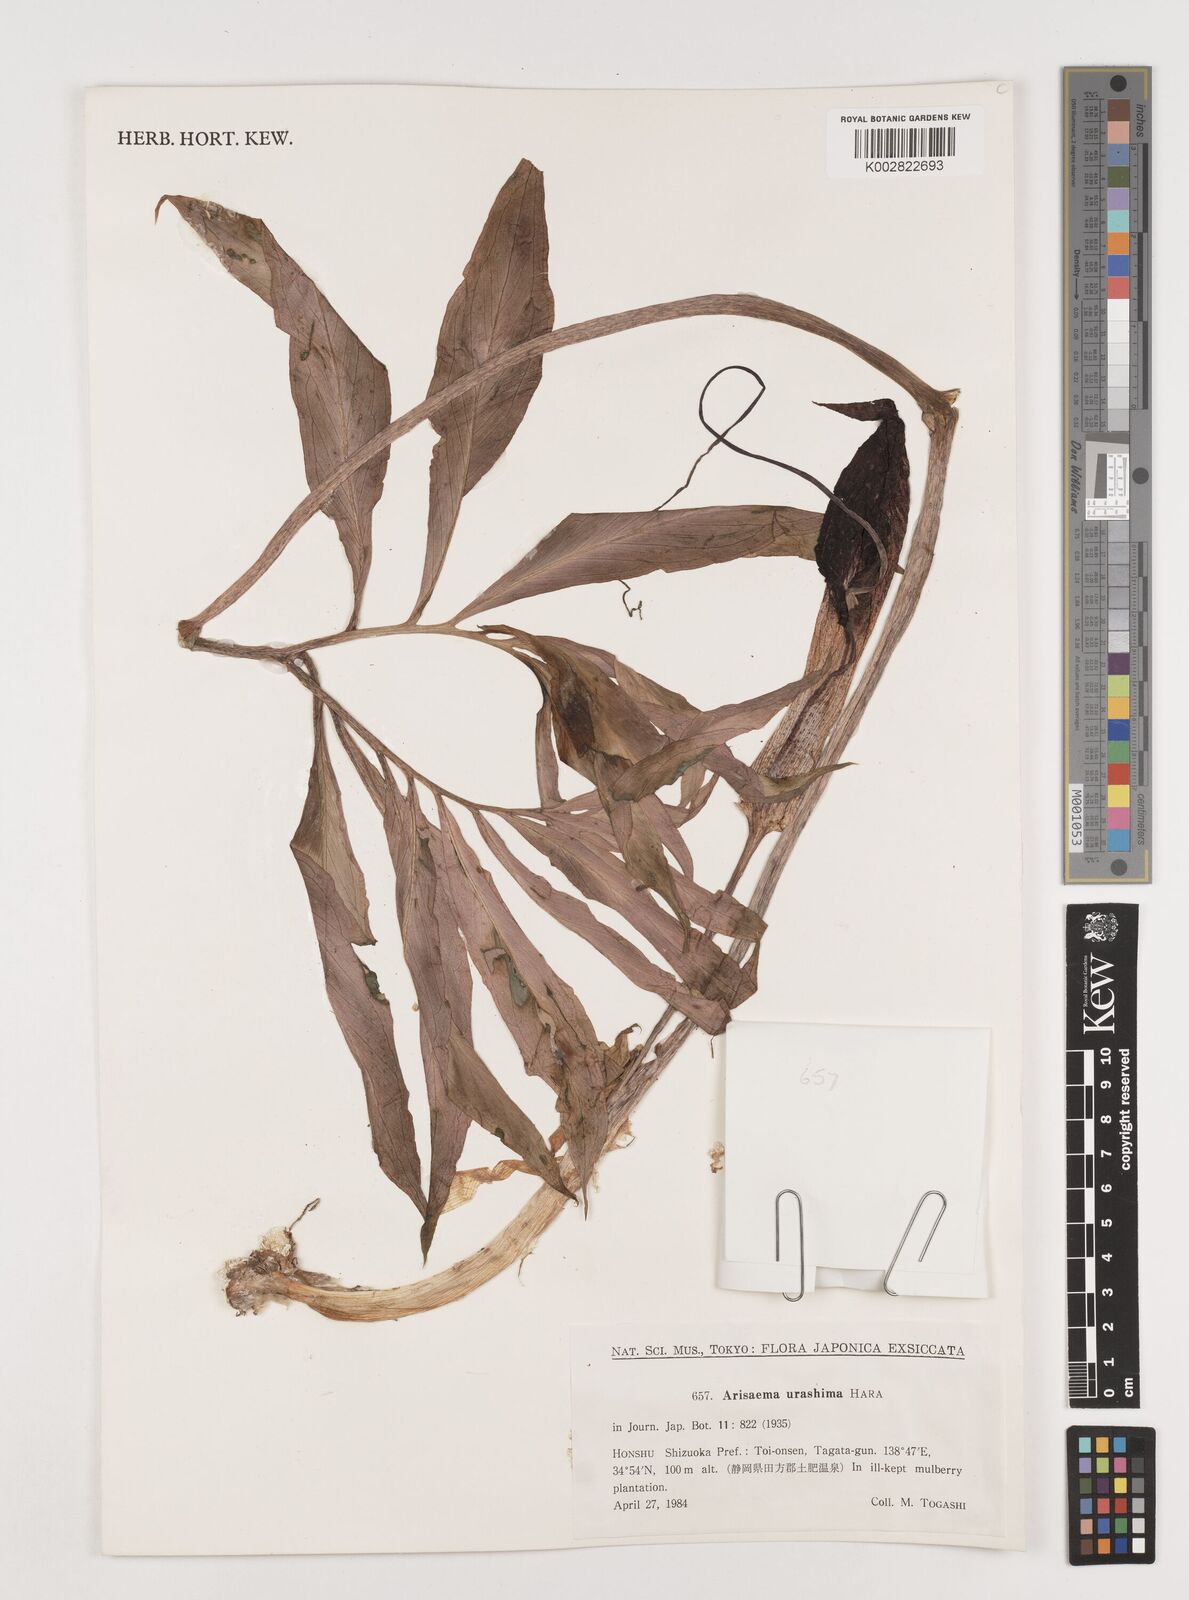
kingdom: Plantae
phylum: Tracheophyta
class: Liliopsida
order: Alismatales
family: Araceae
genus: Arisaema
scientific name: Arisaema thunbergii
